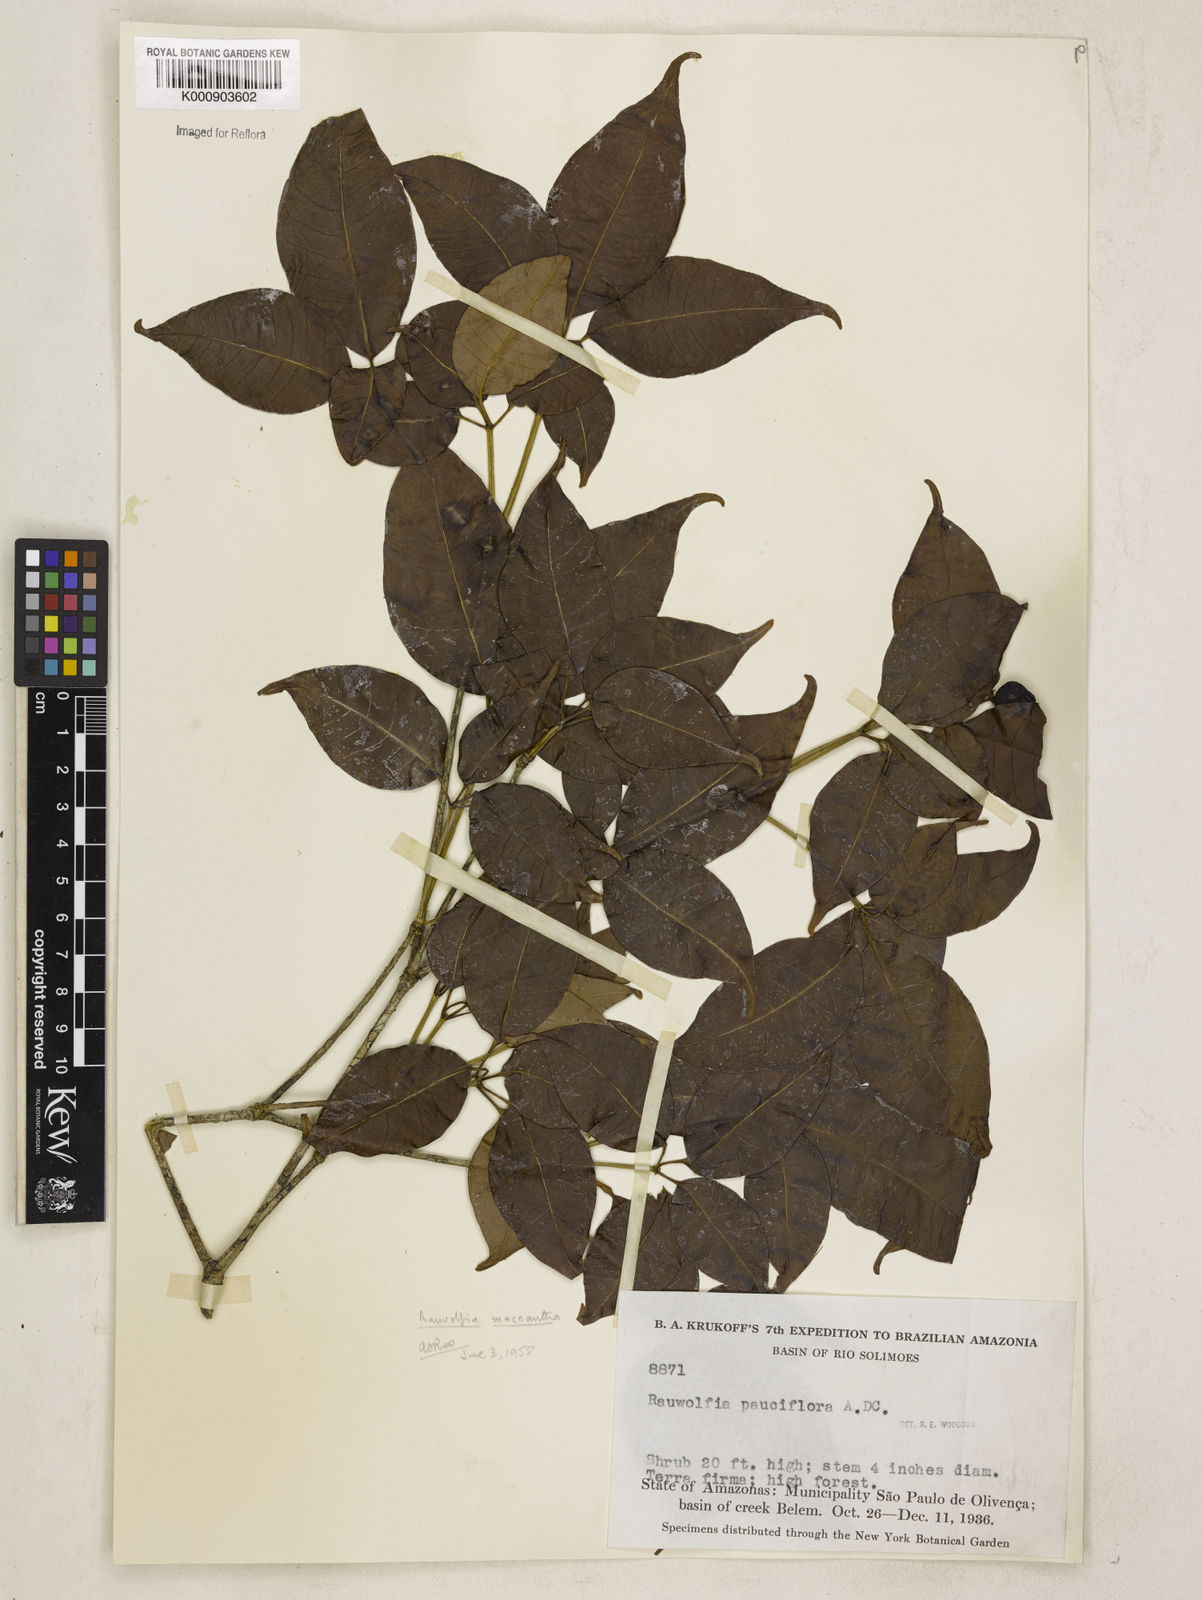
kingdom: Plantae
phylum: Tracheophyta
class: Magnoliopsida
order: Gentianales
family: Apocynaceae
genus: Rauvolfia
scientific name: Rauvolfia macrantha
